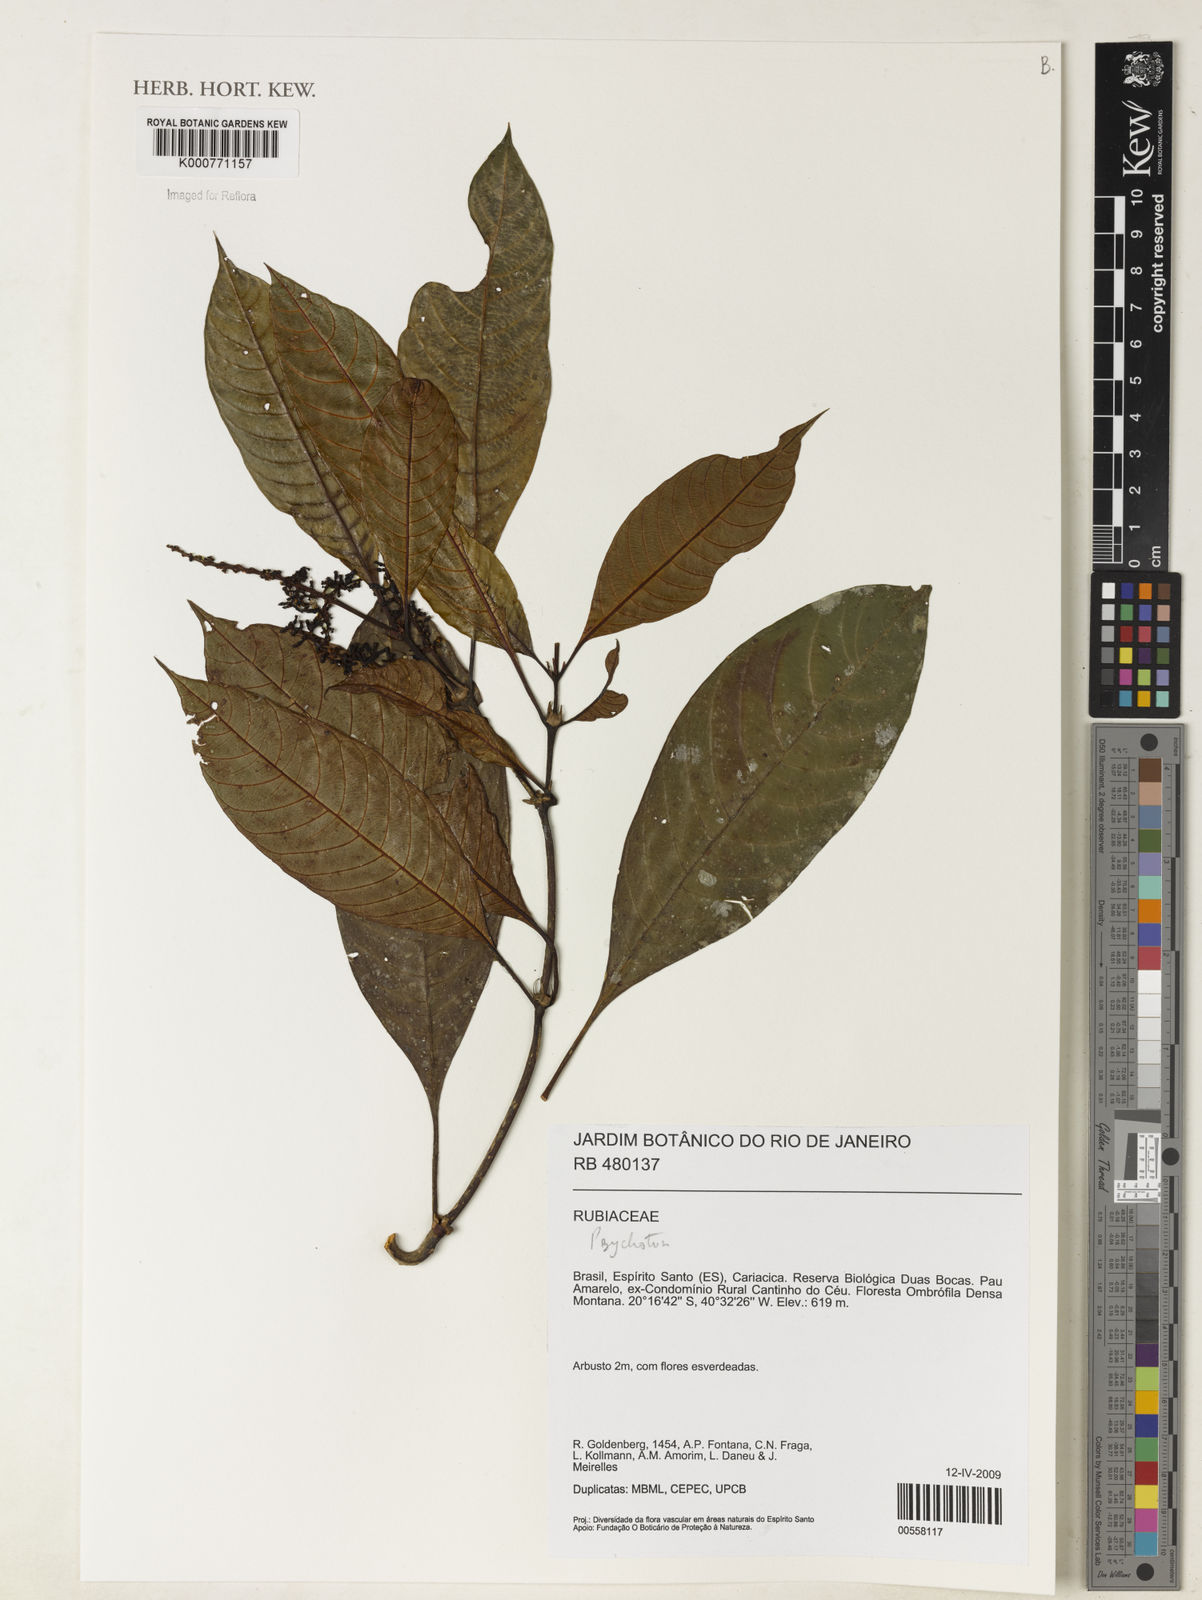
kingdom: Plantae
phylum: Tracheophyta
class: Magnoliopsida
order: Gentianales
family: Rubiaceae
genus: Psychotria
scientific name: Psychotria
